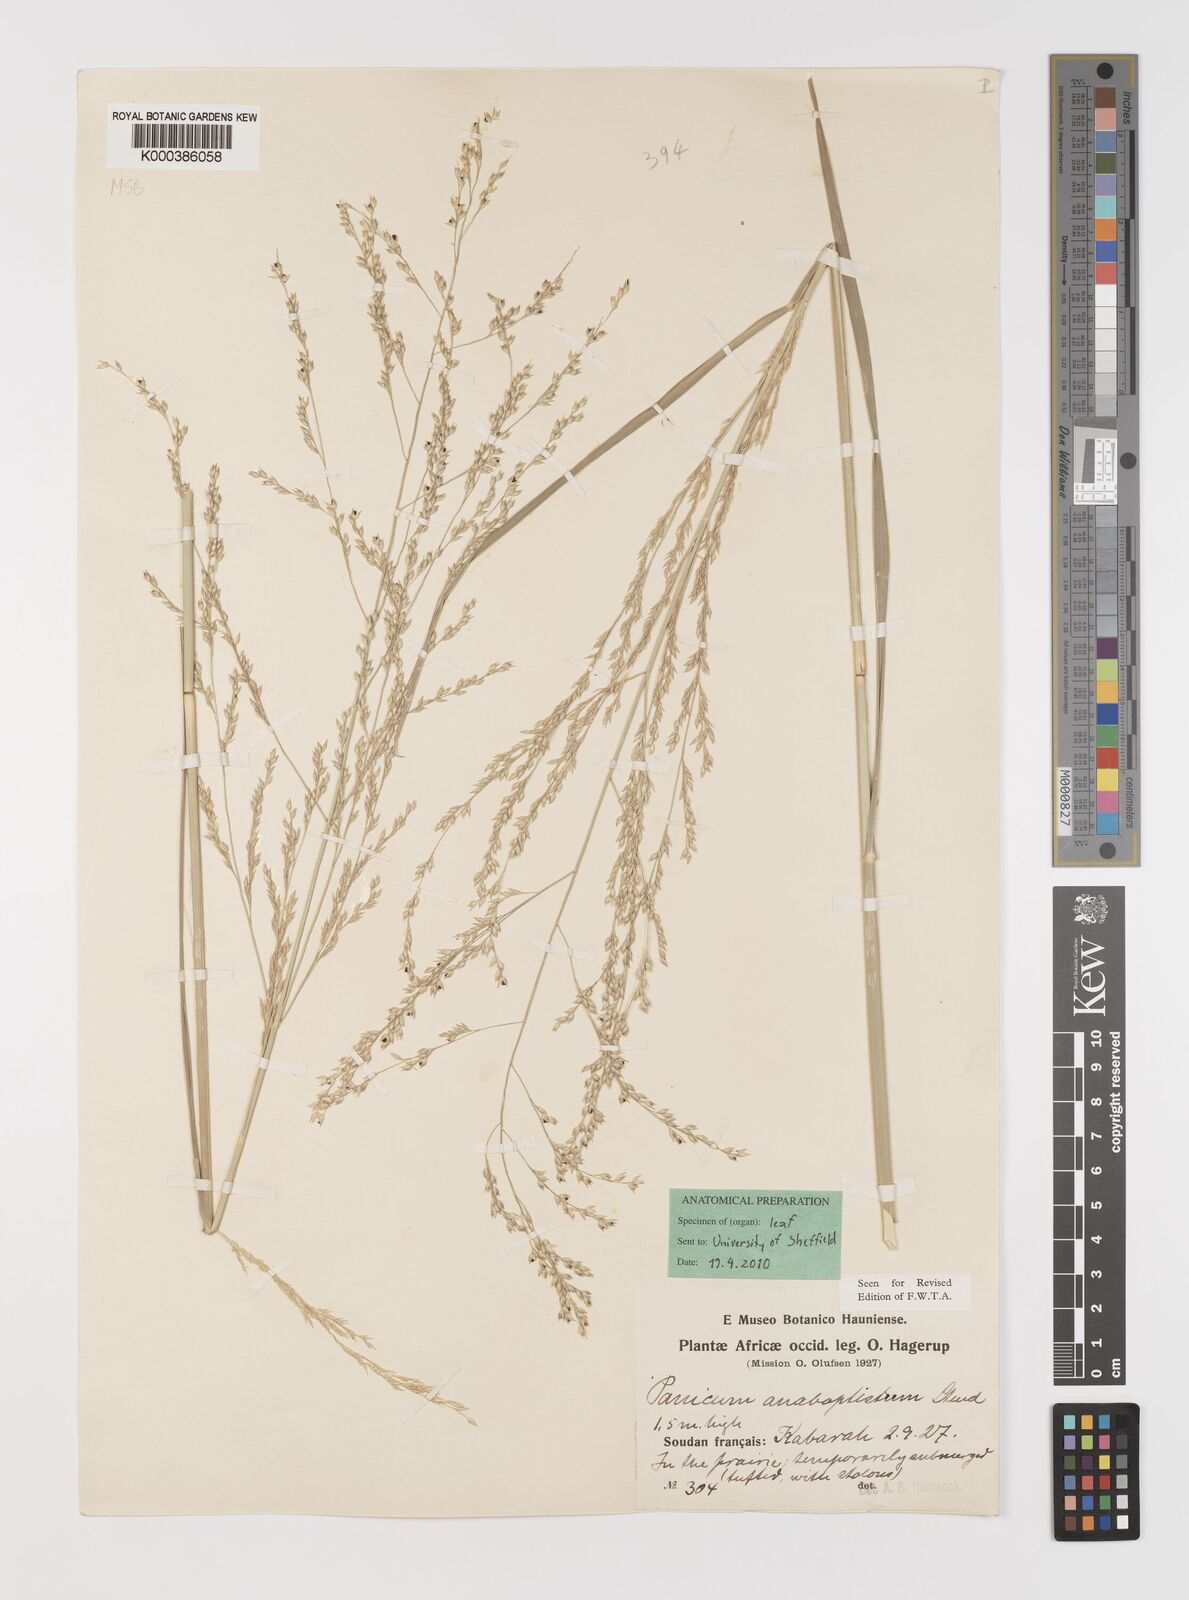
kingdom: Plantae
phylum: Tracheophyta
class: Liliopsida
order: Poales
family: Poaceae
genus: Panicum
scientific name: Panicum anabaptistum
